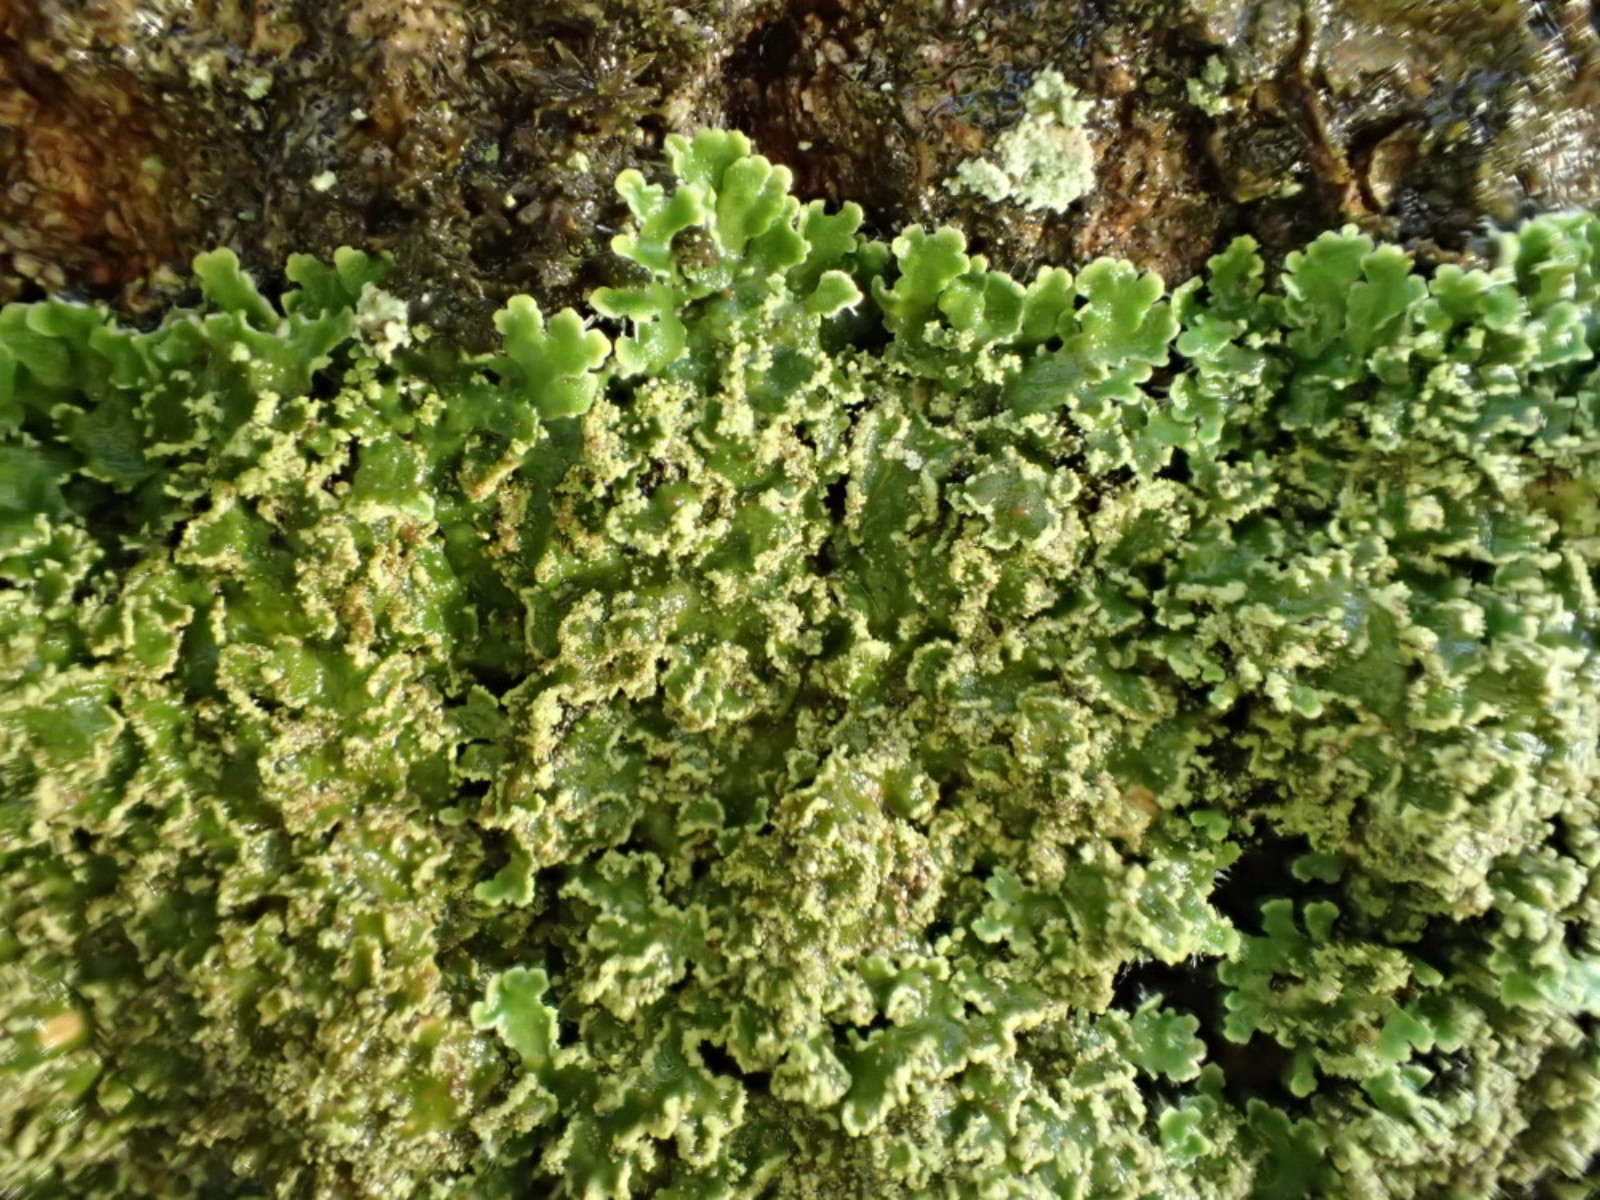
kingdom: Fungi
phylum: Ascomycota
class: Lecanoromycetes
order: Caliciales
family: Physciaceae
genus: Physconia
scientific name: Physconia perisidiosa
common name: liden dugrosetlav
